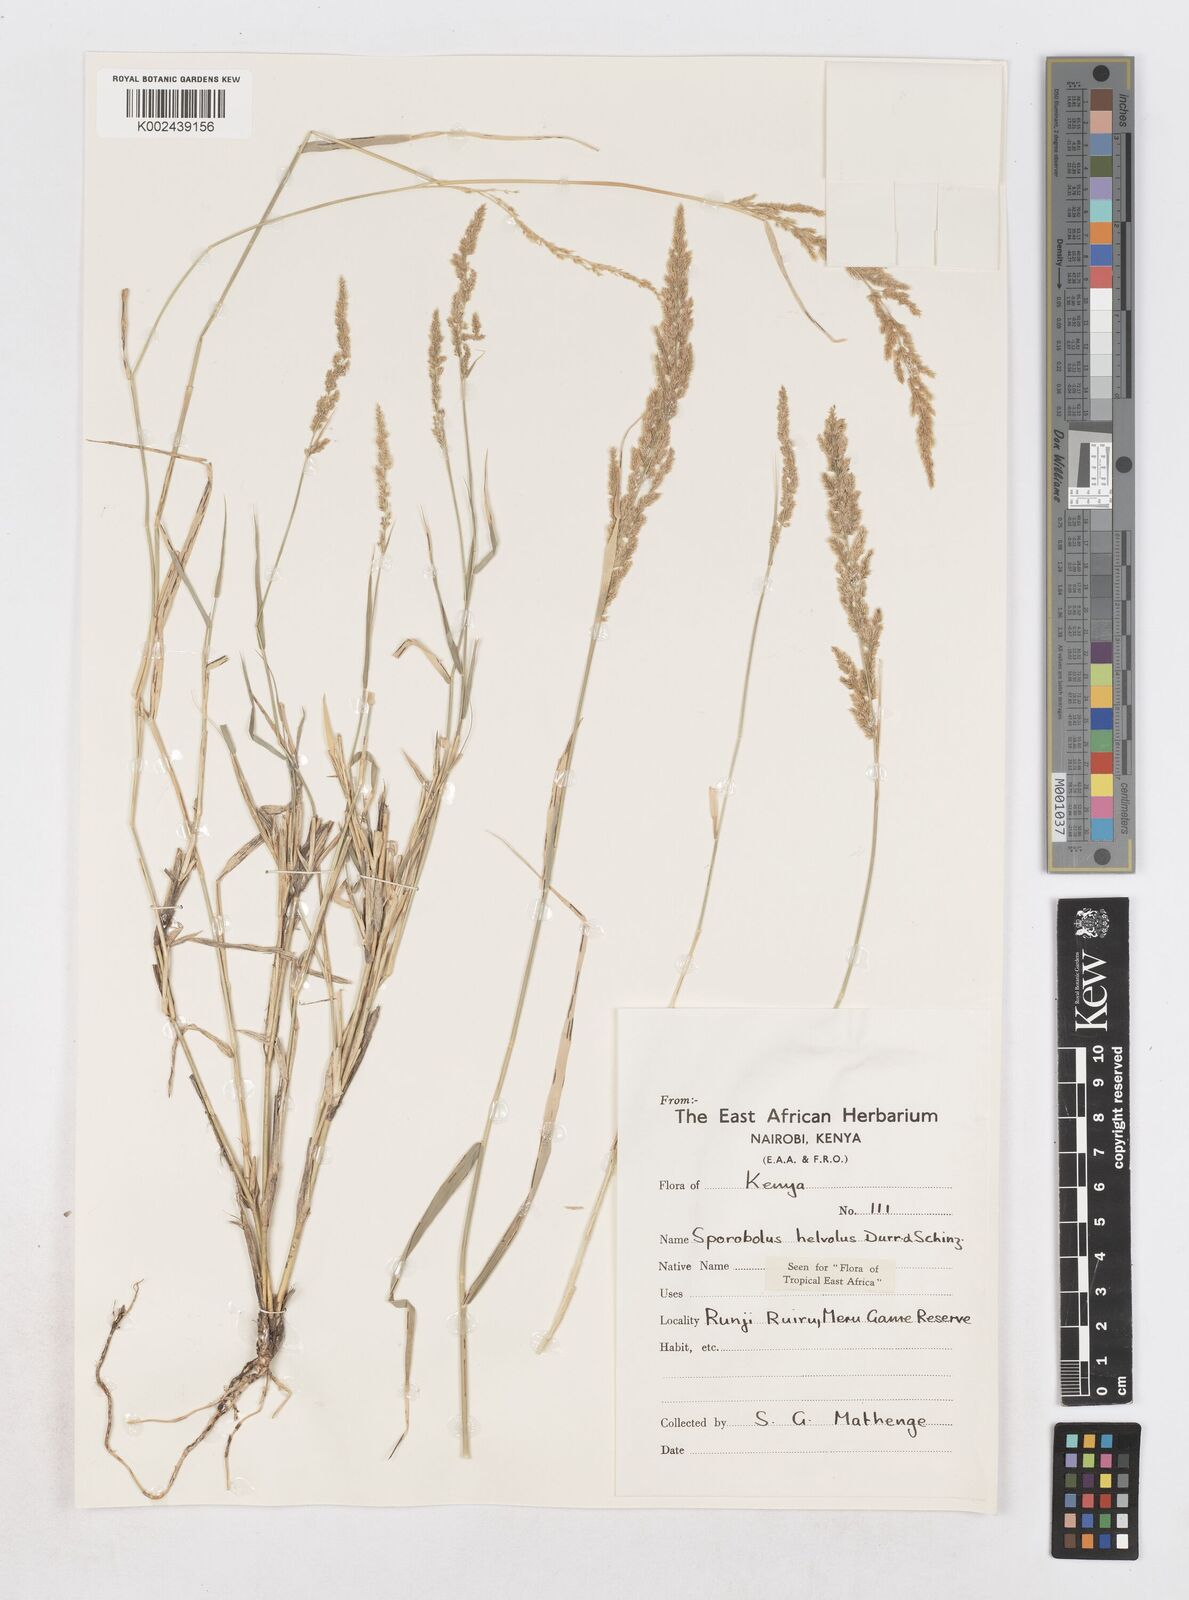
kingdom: Plantae
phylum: Tracheophyta
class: Liliopsida
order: Poales
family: Poaceae
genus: Sporobolus
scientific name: Sporobolus helvolus
